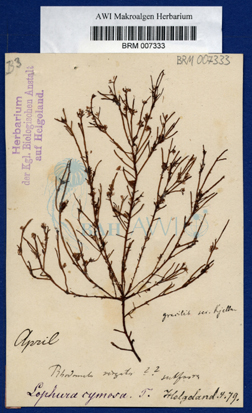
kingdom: Plantae
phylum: Rhodophyta
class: Florideophyceae
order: Ceramiales
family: Rhodomelaceae
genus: Lophura
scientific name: Lophura
